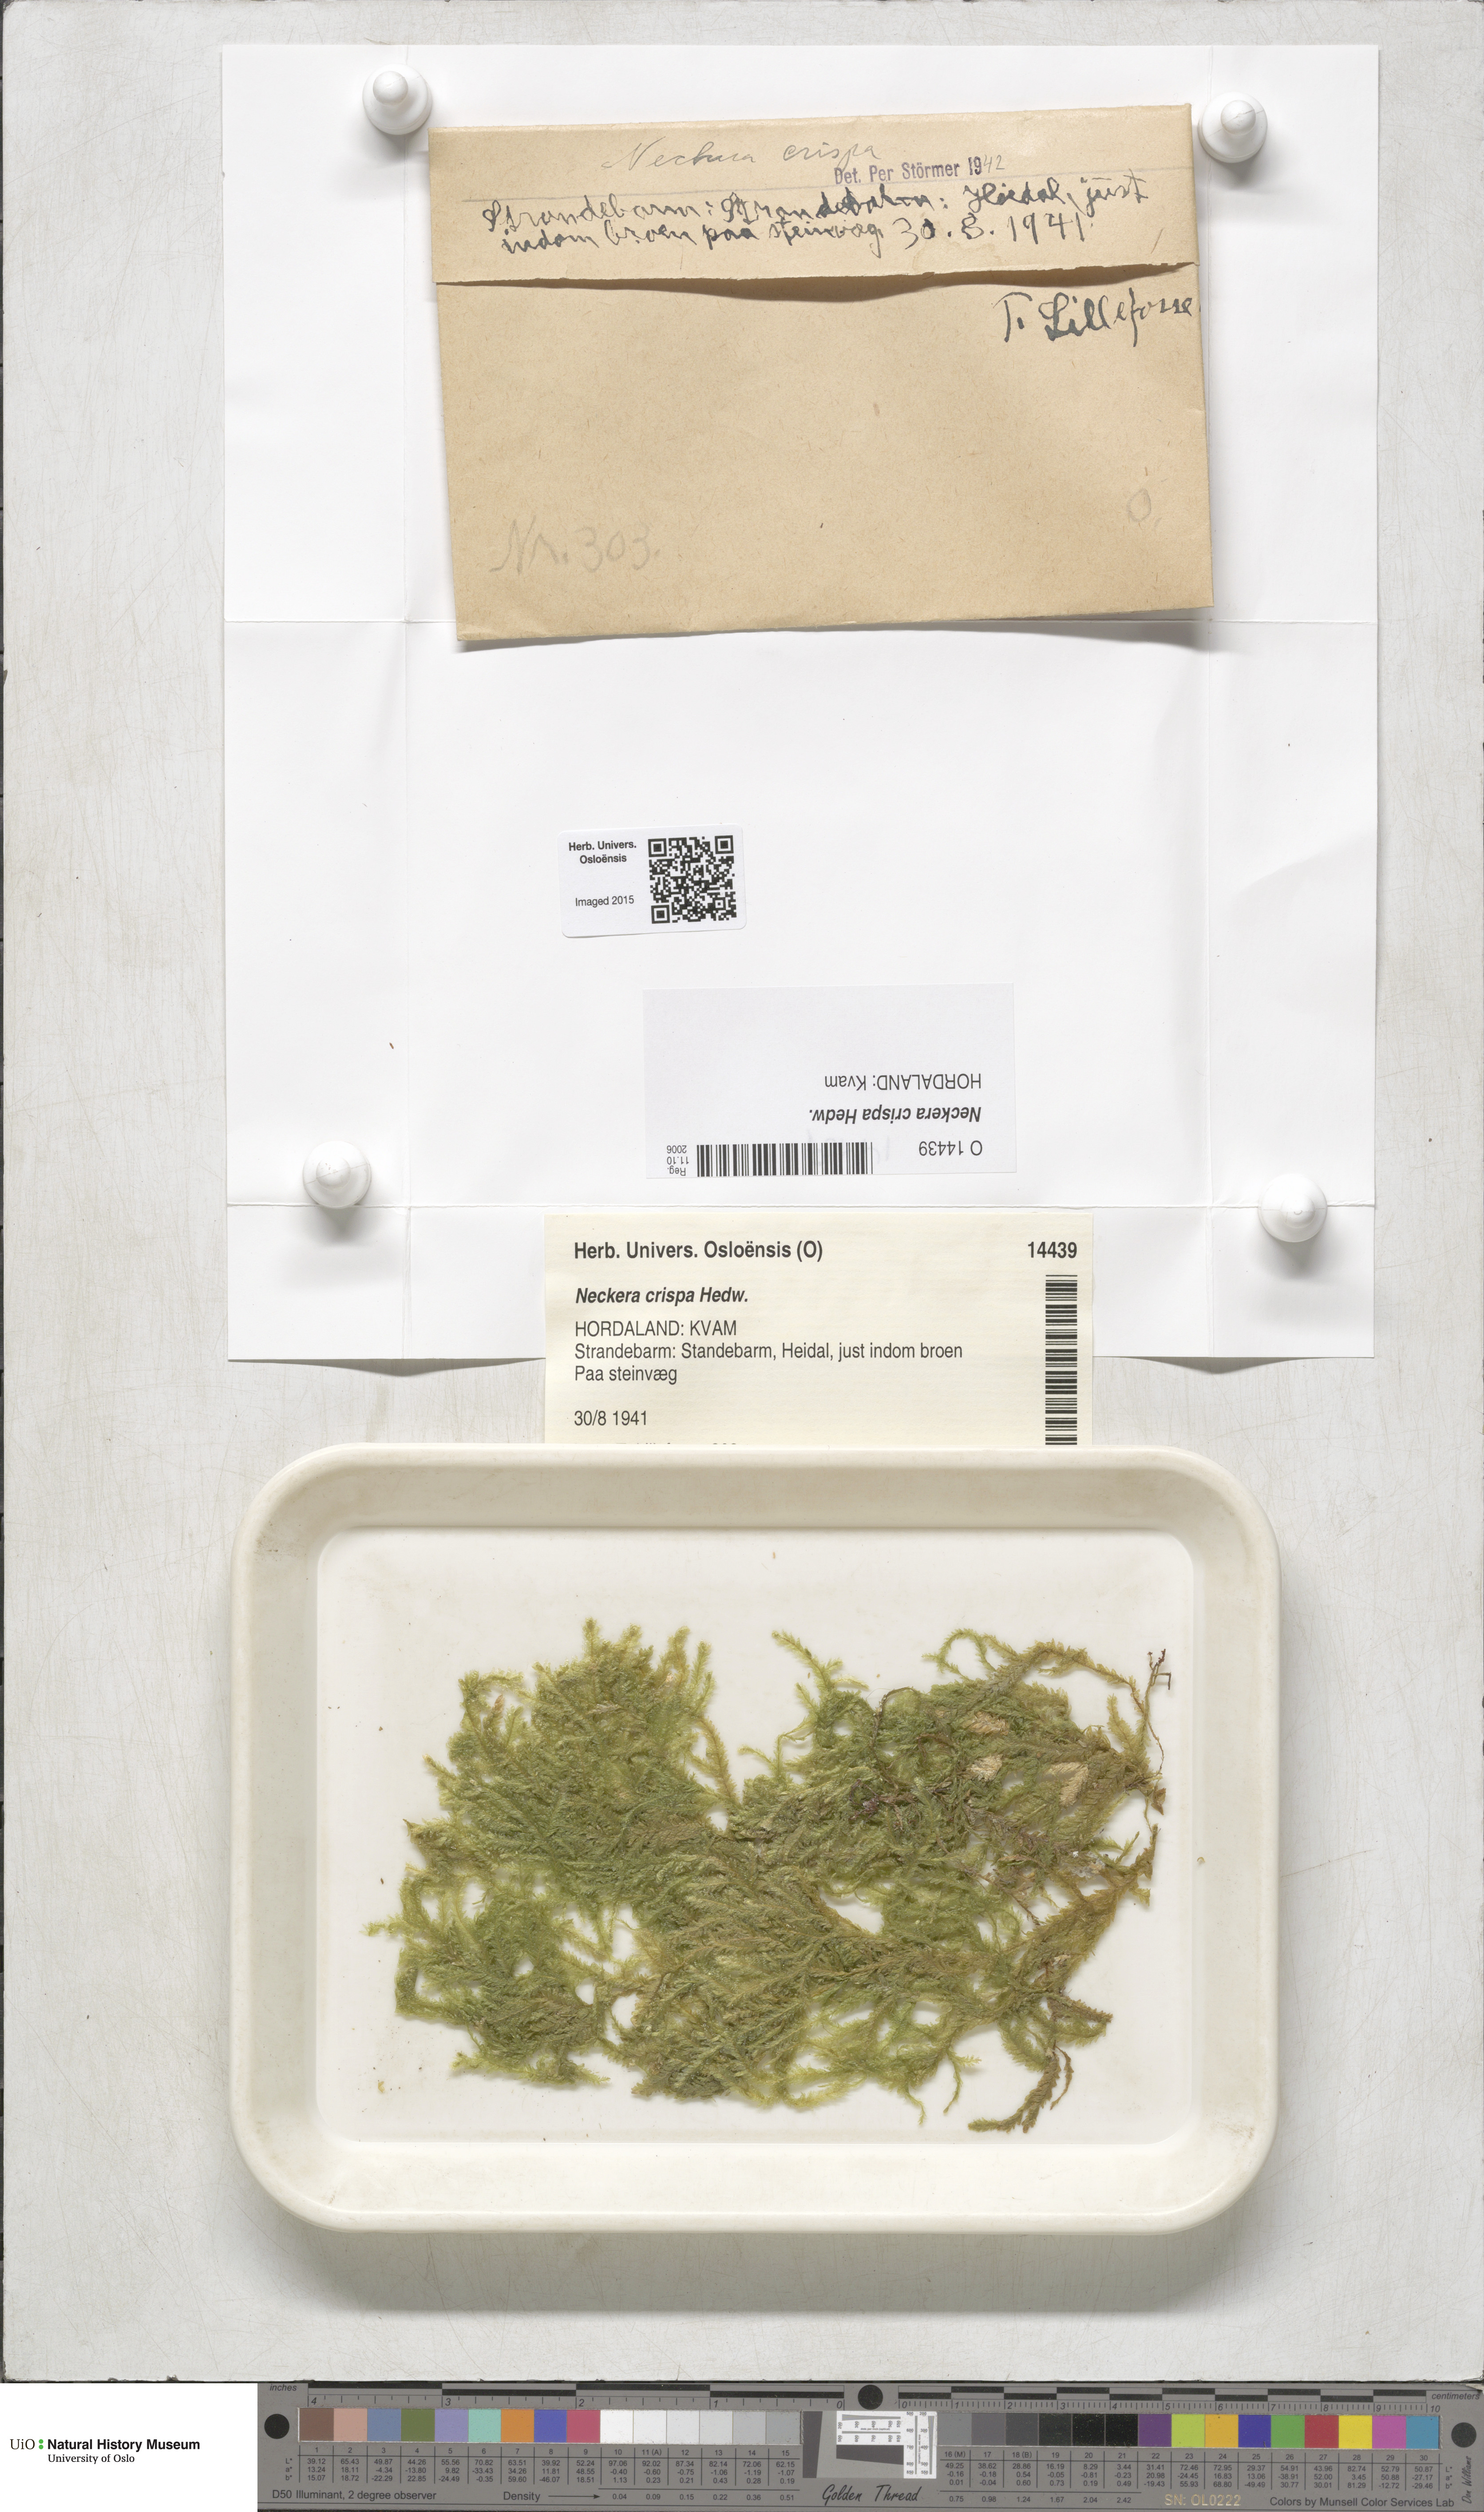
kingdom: Plantae
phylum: Bryophyta
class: Bryopsida
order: Hypnales
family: Neckeraceae
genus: Exsertotheca
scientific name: Exsertotheca crispa
